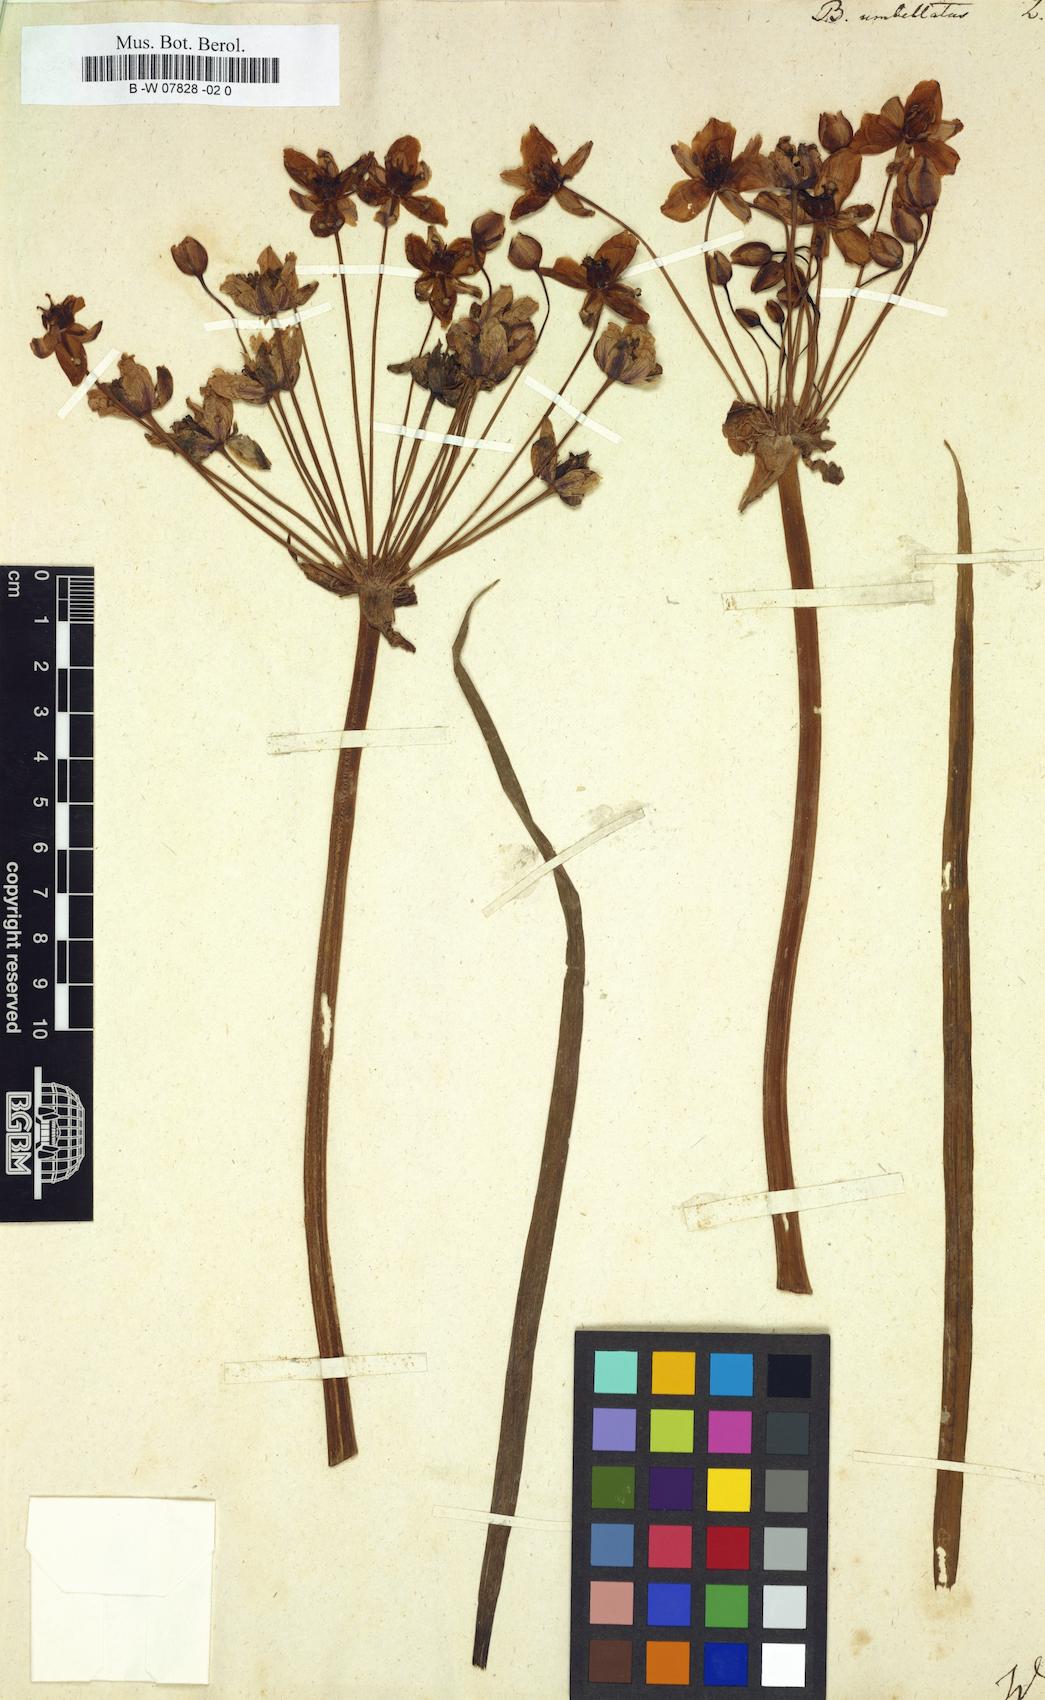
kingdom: Plantae
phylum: Tracheophyta
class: Liliopsida
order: Alismatales
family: Butomaceae
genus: Butomus
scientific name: Butomus umbellatus
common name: Flowering-rush
